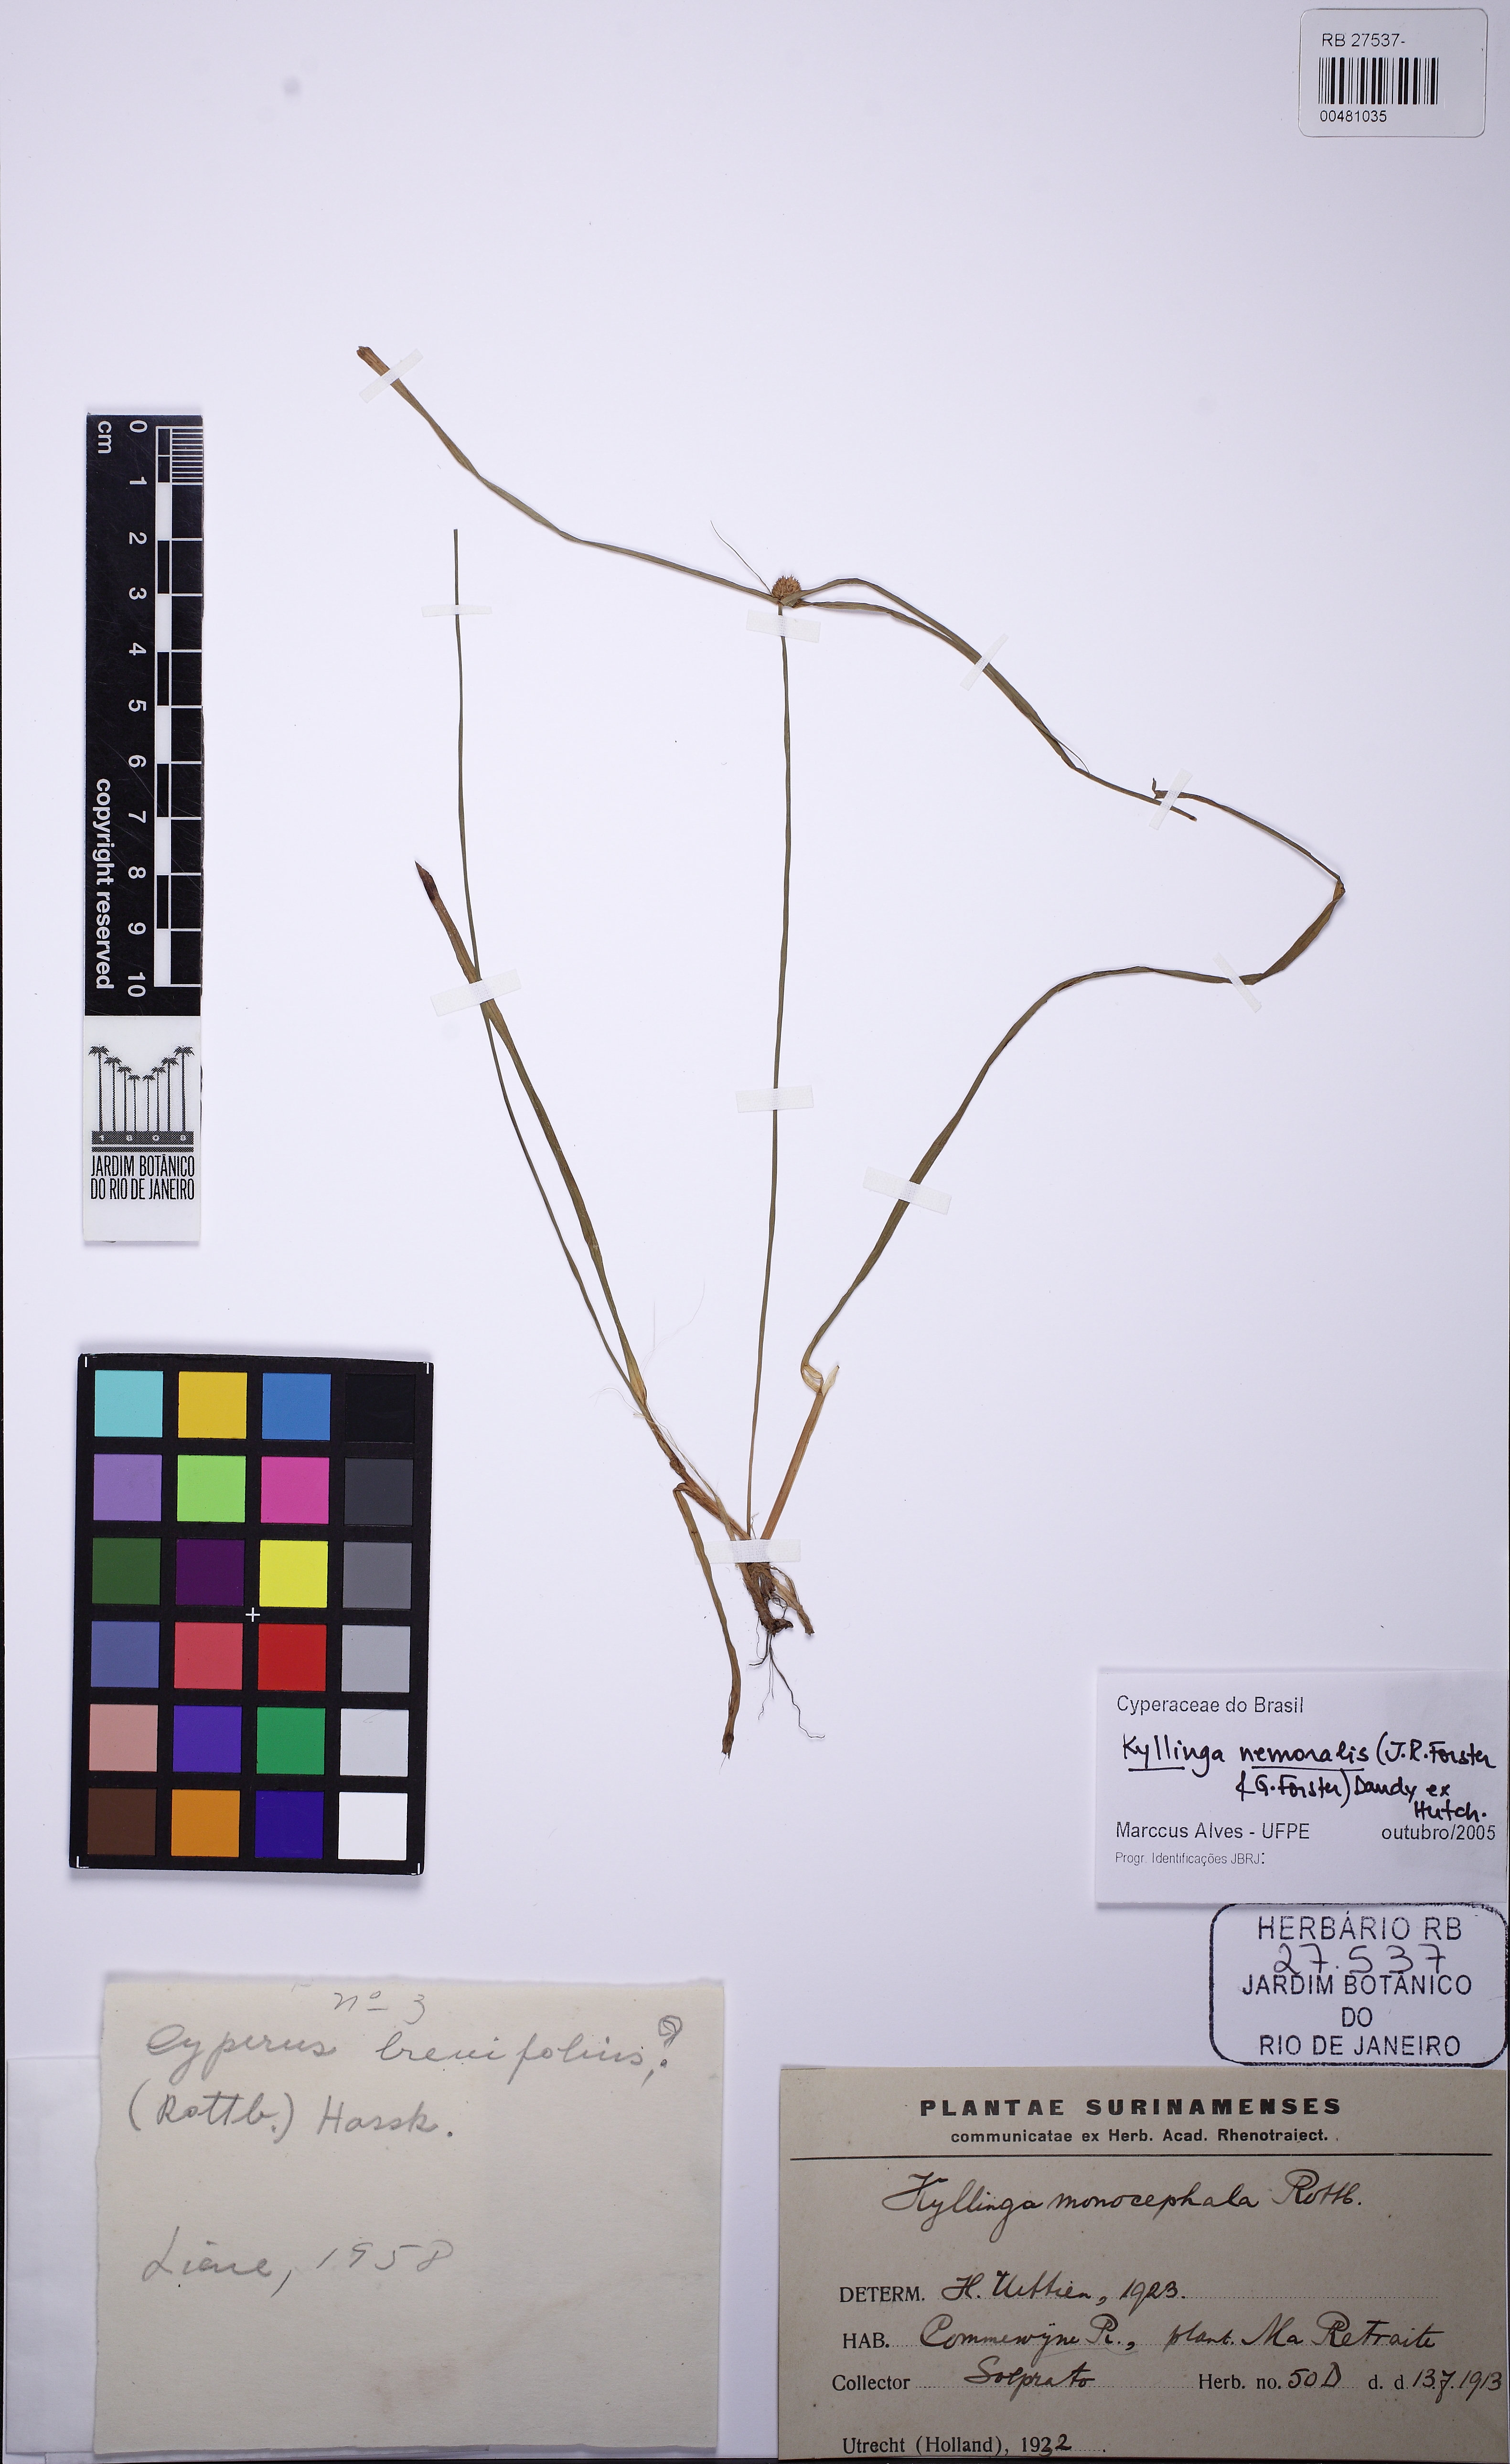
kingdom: Plantae
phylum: Tracheophyta
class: Liliopsida
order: Poales
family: Cyperaceae
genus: Cyperus
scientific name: Cyperus mindorensis
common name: Flatsedge
